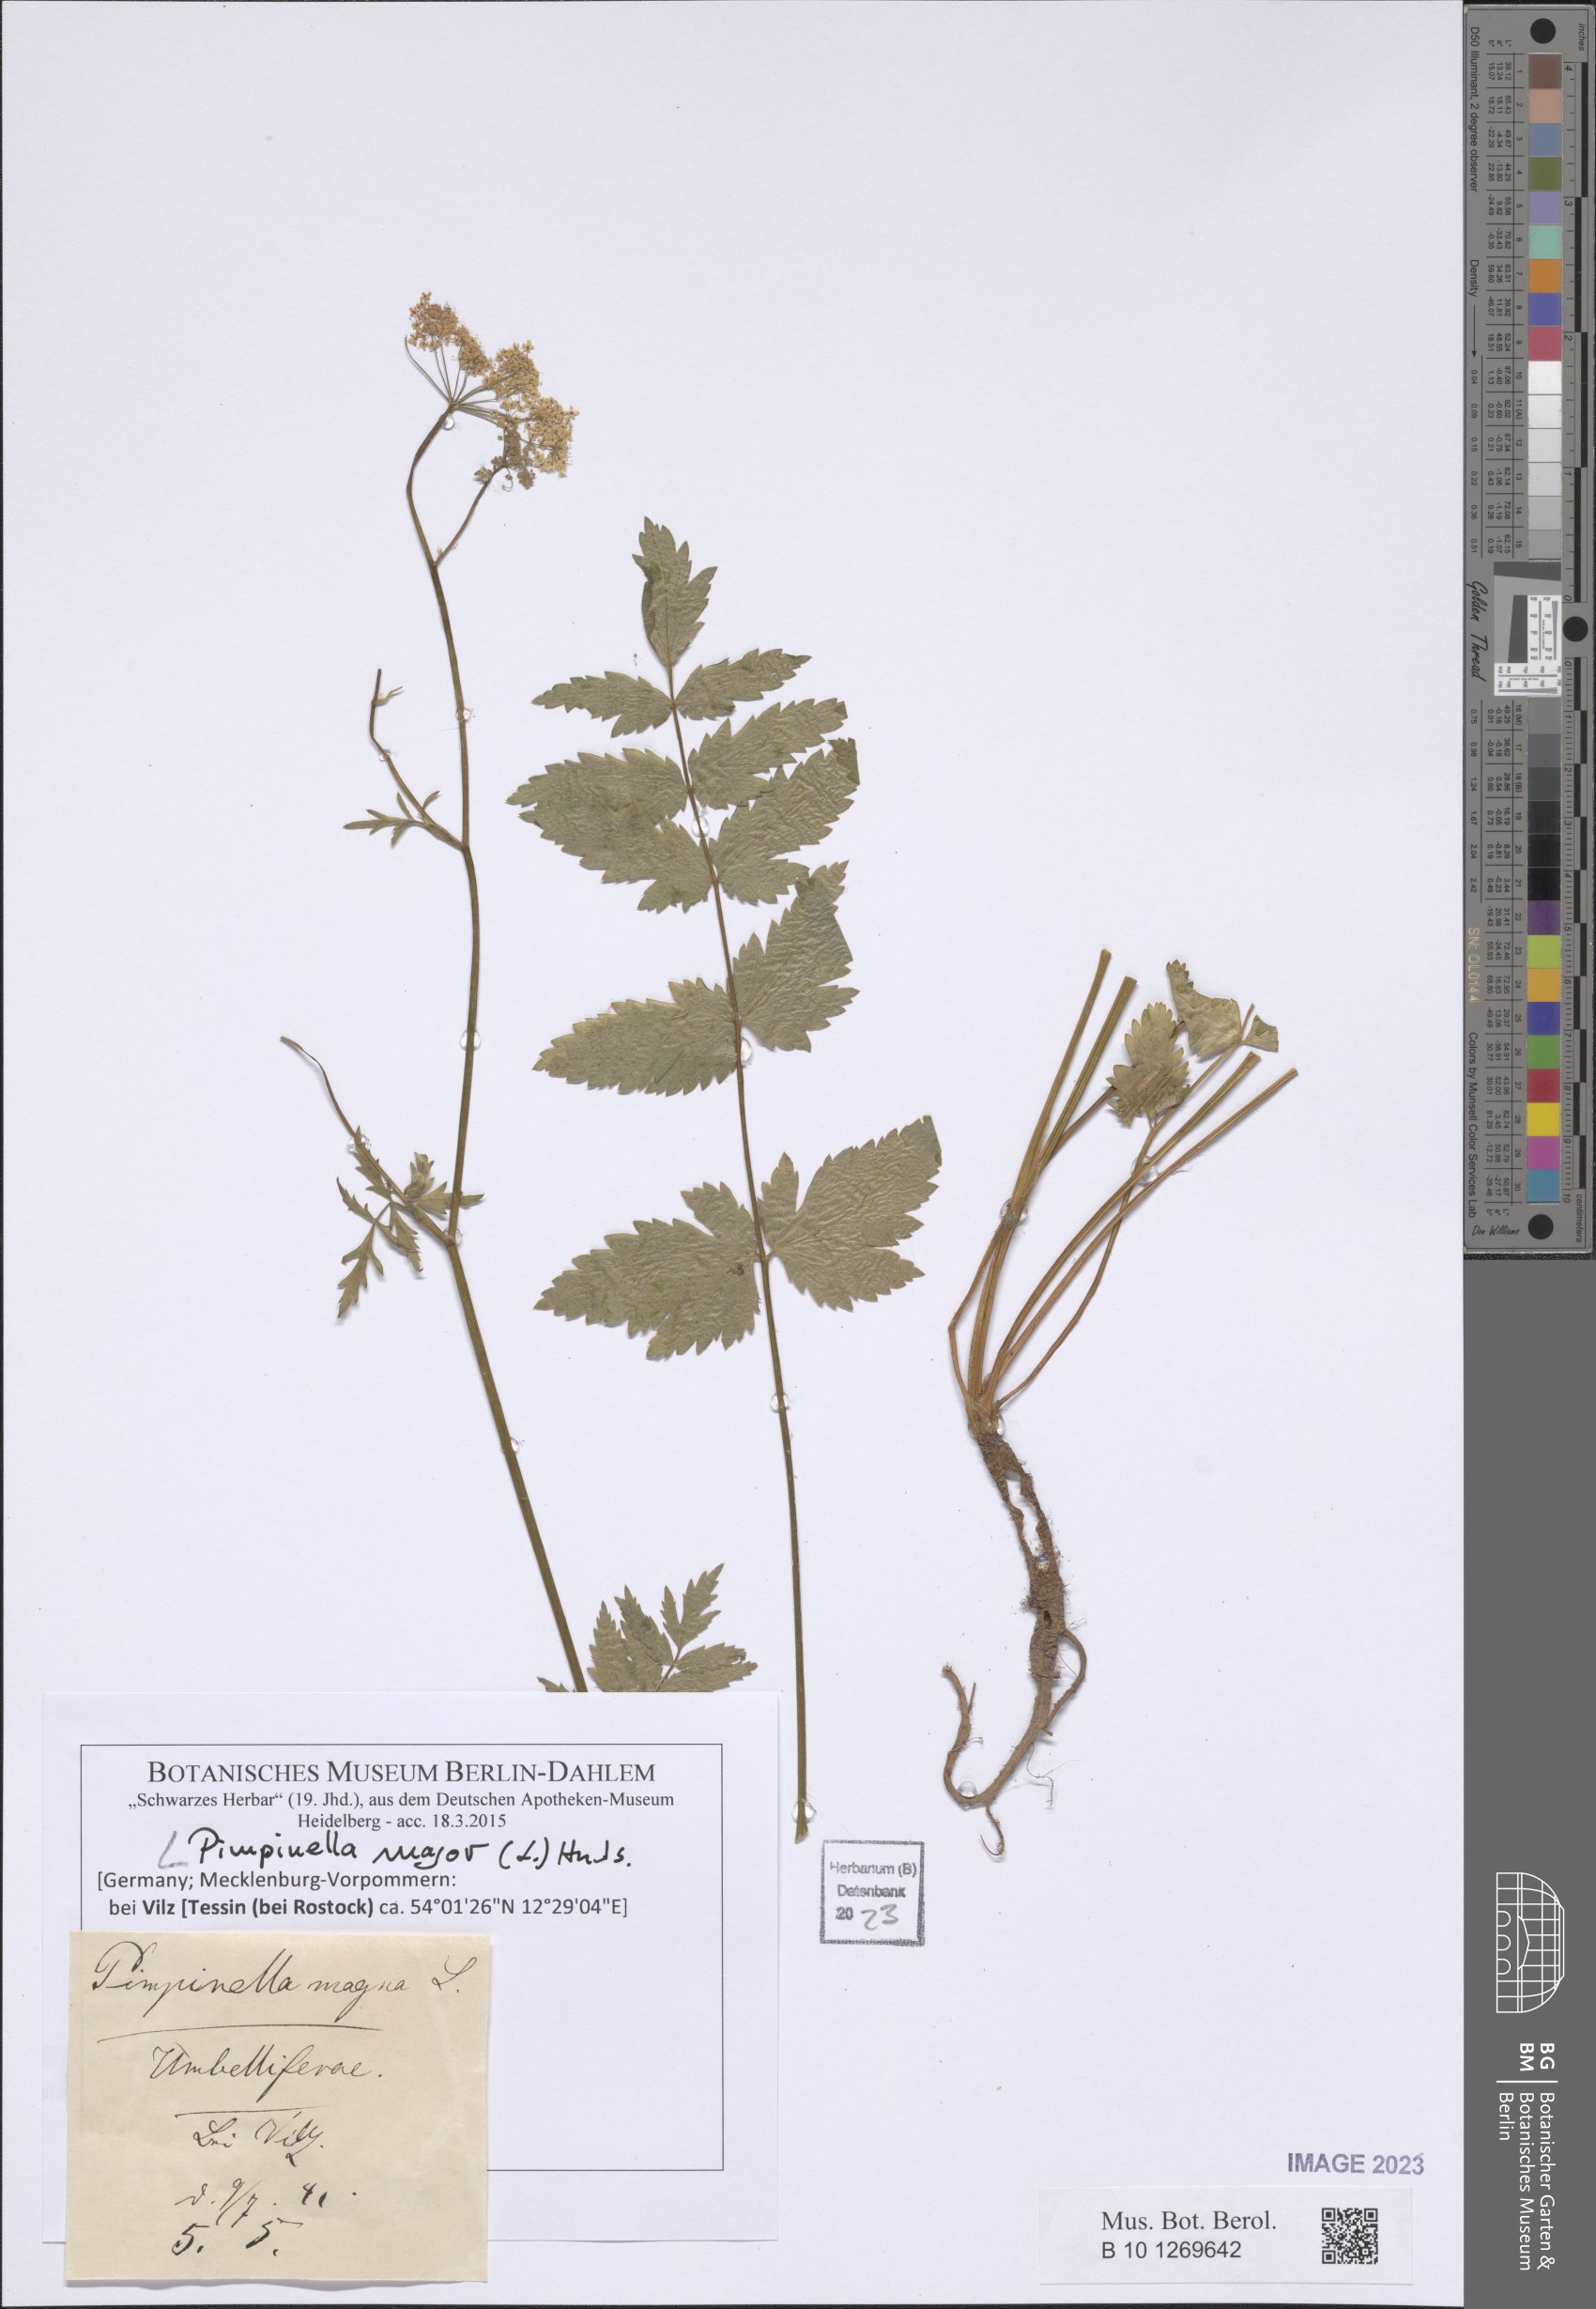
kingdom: Plantae
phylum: Tracheophyta
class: Magnoliopsida
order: Apiales
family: Apiaceae
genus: Pimpinella
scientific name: Pimpinella major
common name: Greater burnet-saxifrage
